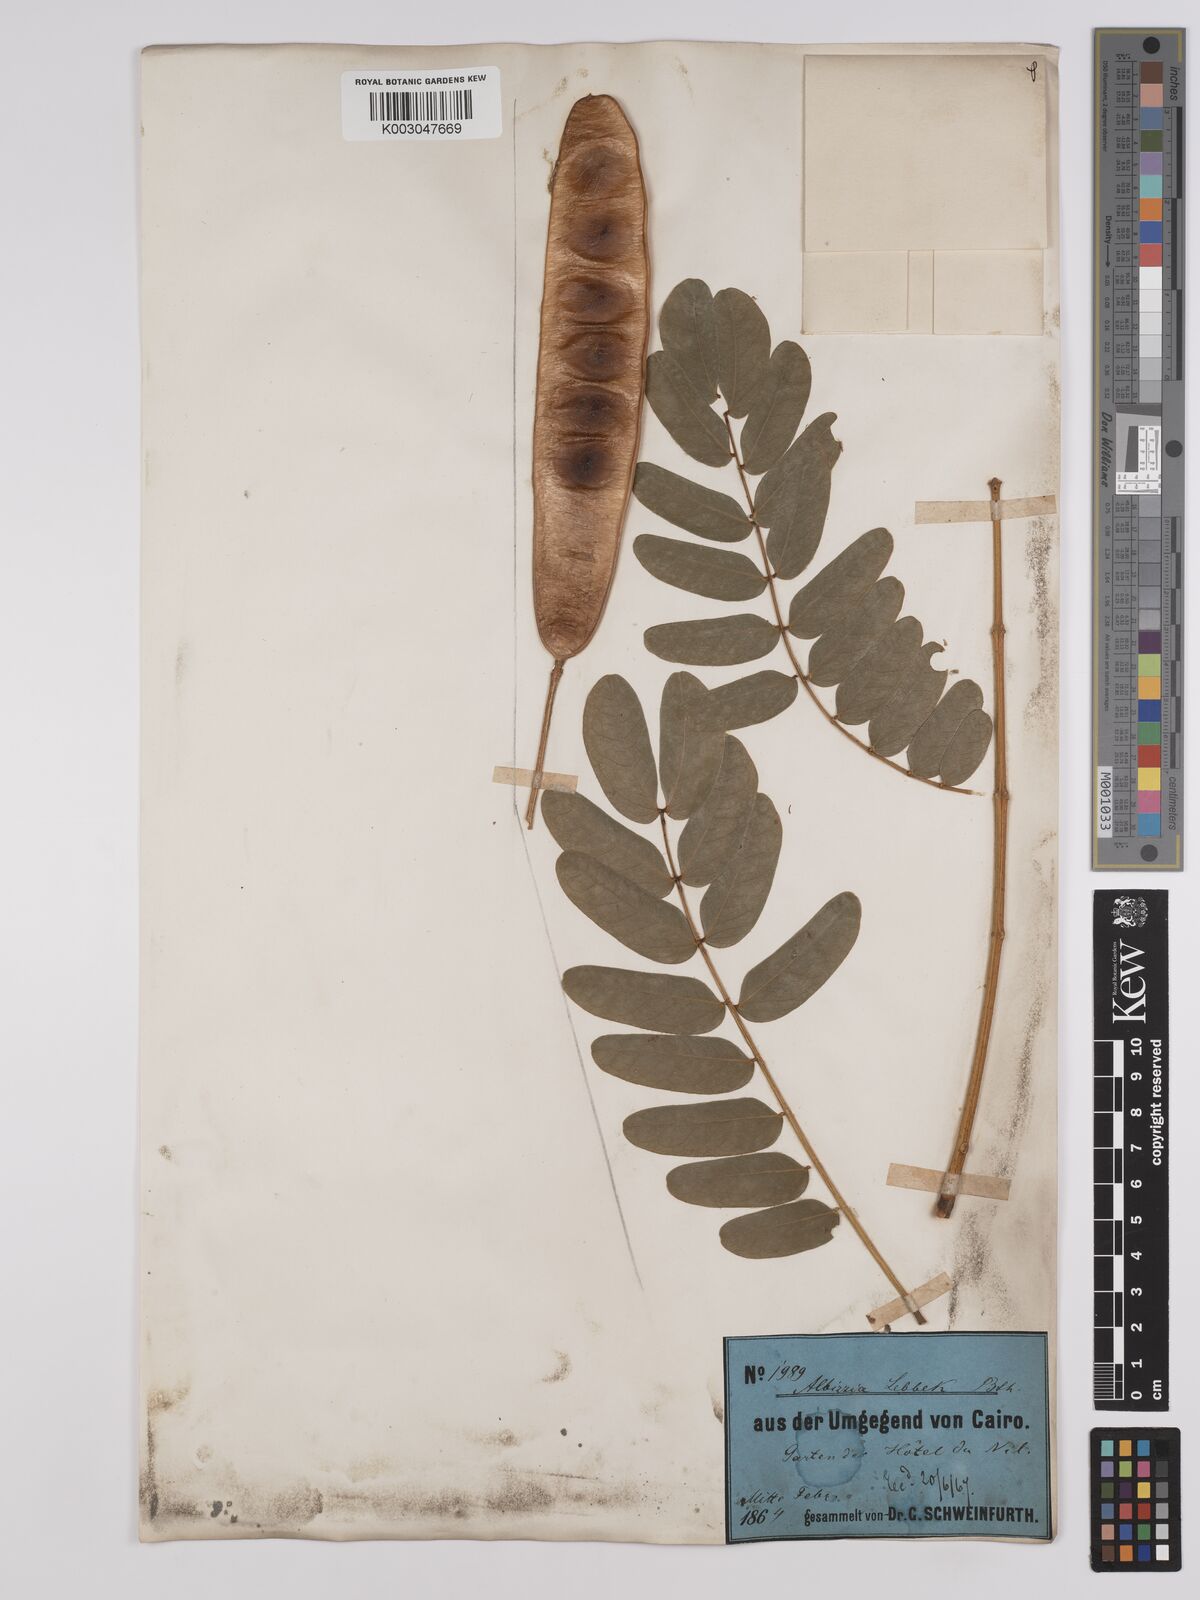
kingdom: Plantae
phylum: Tracheophyta
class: Magnoliopsida
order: Fabales
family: Fabaceae
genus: Albizia
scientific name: Albizia lebbeck
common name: Woman's tongue
